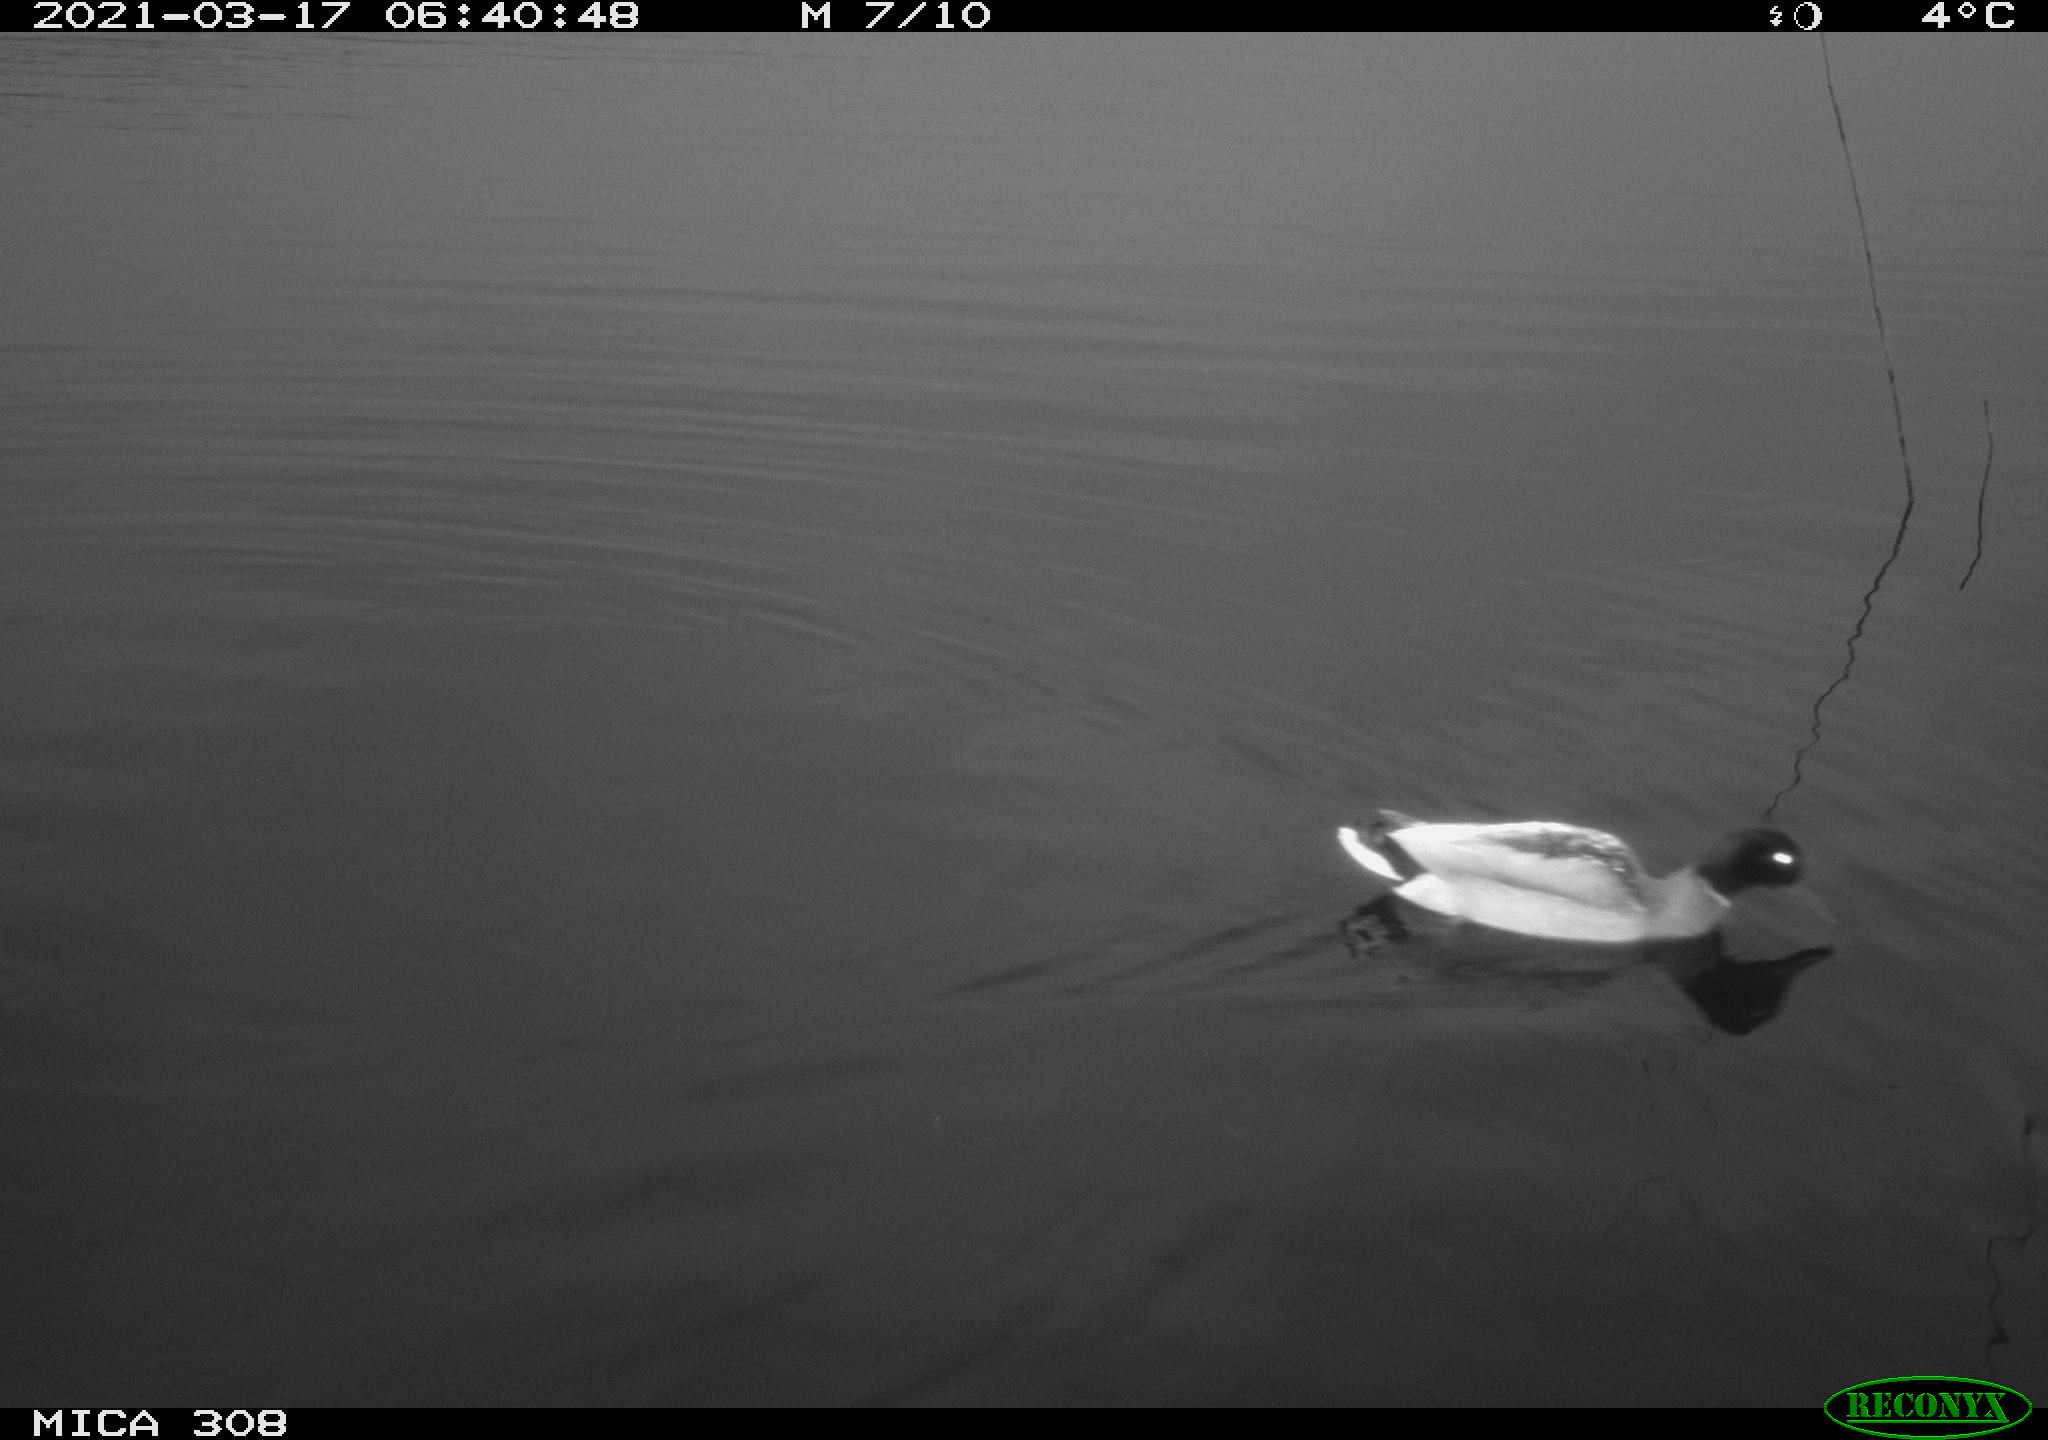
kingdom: Animalia
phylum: Chordata
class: Aves
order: Anseriformes
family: Anatidae
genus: Anas
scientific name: Anas platyrhynchos
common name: Mallard
